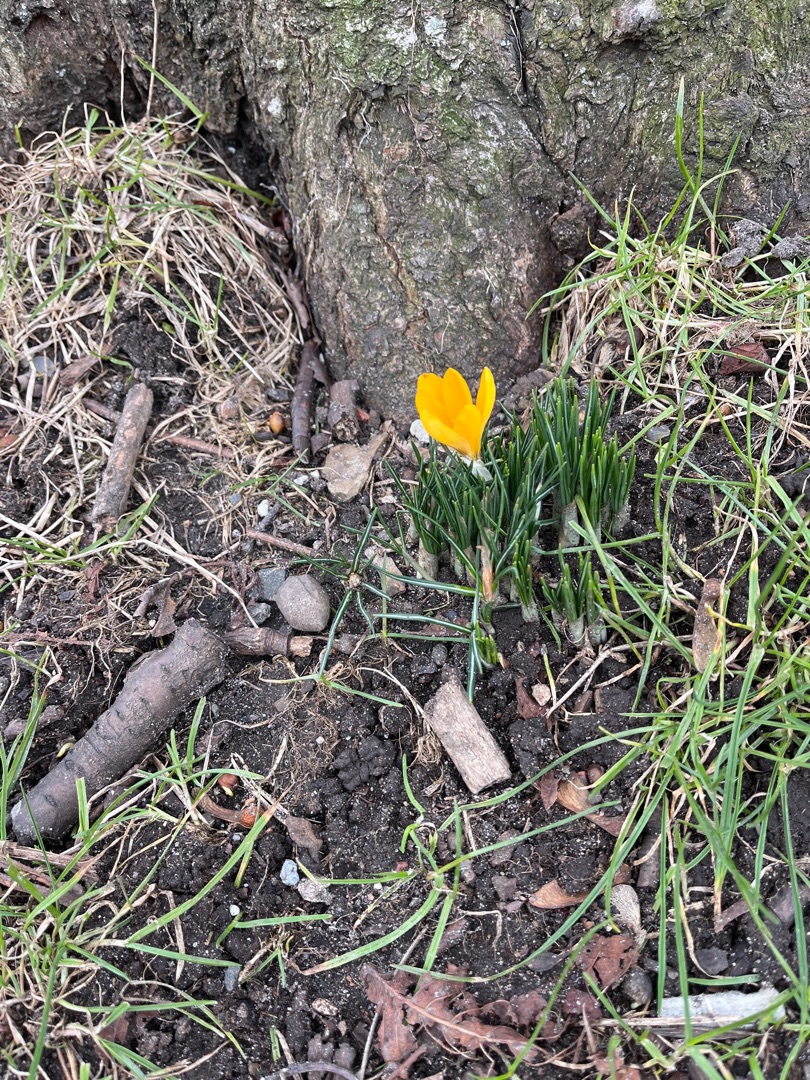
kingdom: Plantae
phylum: Tracheophyta
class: Liliopsida
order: Asparagales
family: Iridaceae
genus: Crocus
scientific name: Crocus luteus
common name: Gul krokus
